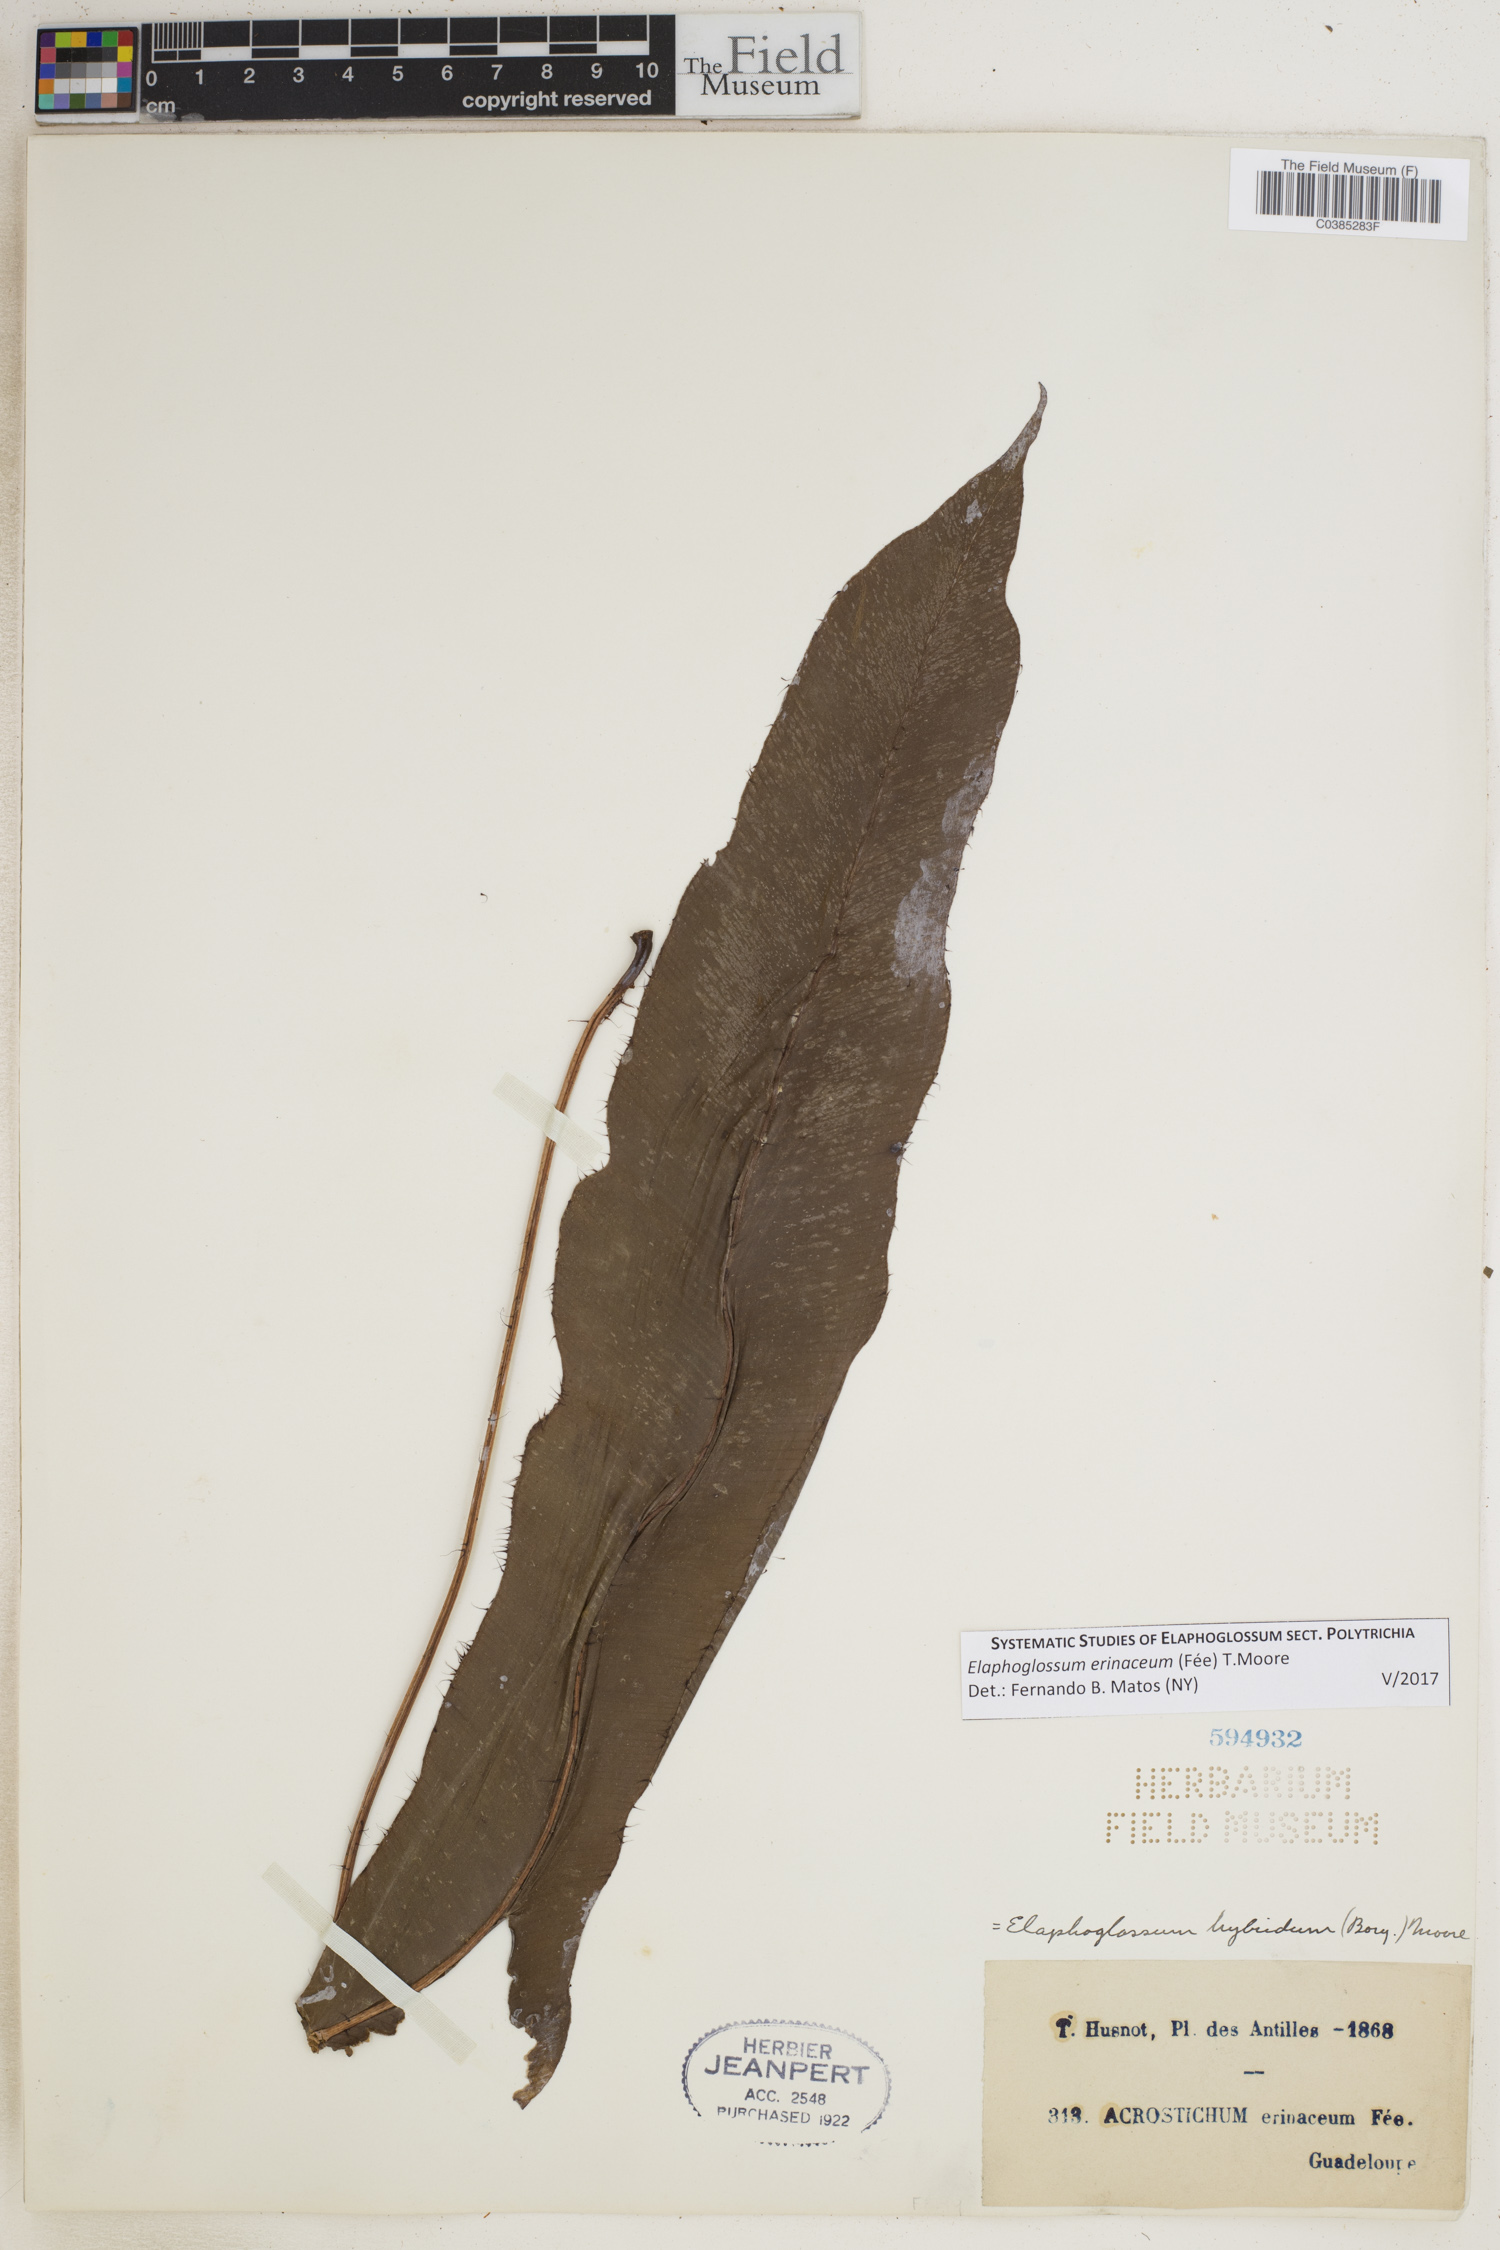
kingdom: Plantae
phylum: Tracheophyta
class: Polypodiopsida
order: Polypodiales
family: Dryopteridaceae
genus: Elaphoglossum
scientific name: Elaphoglossum erinaceum
